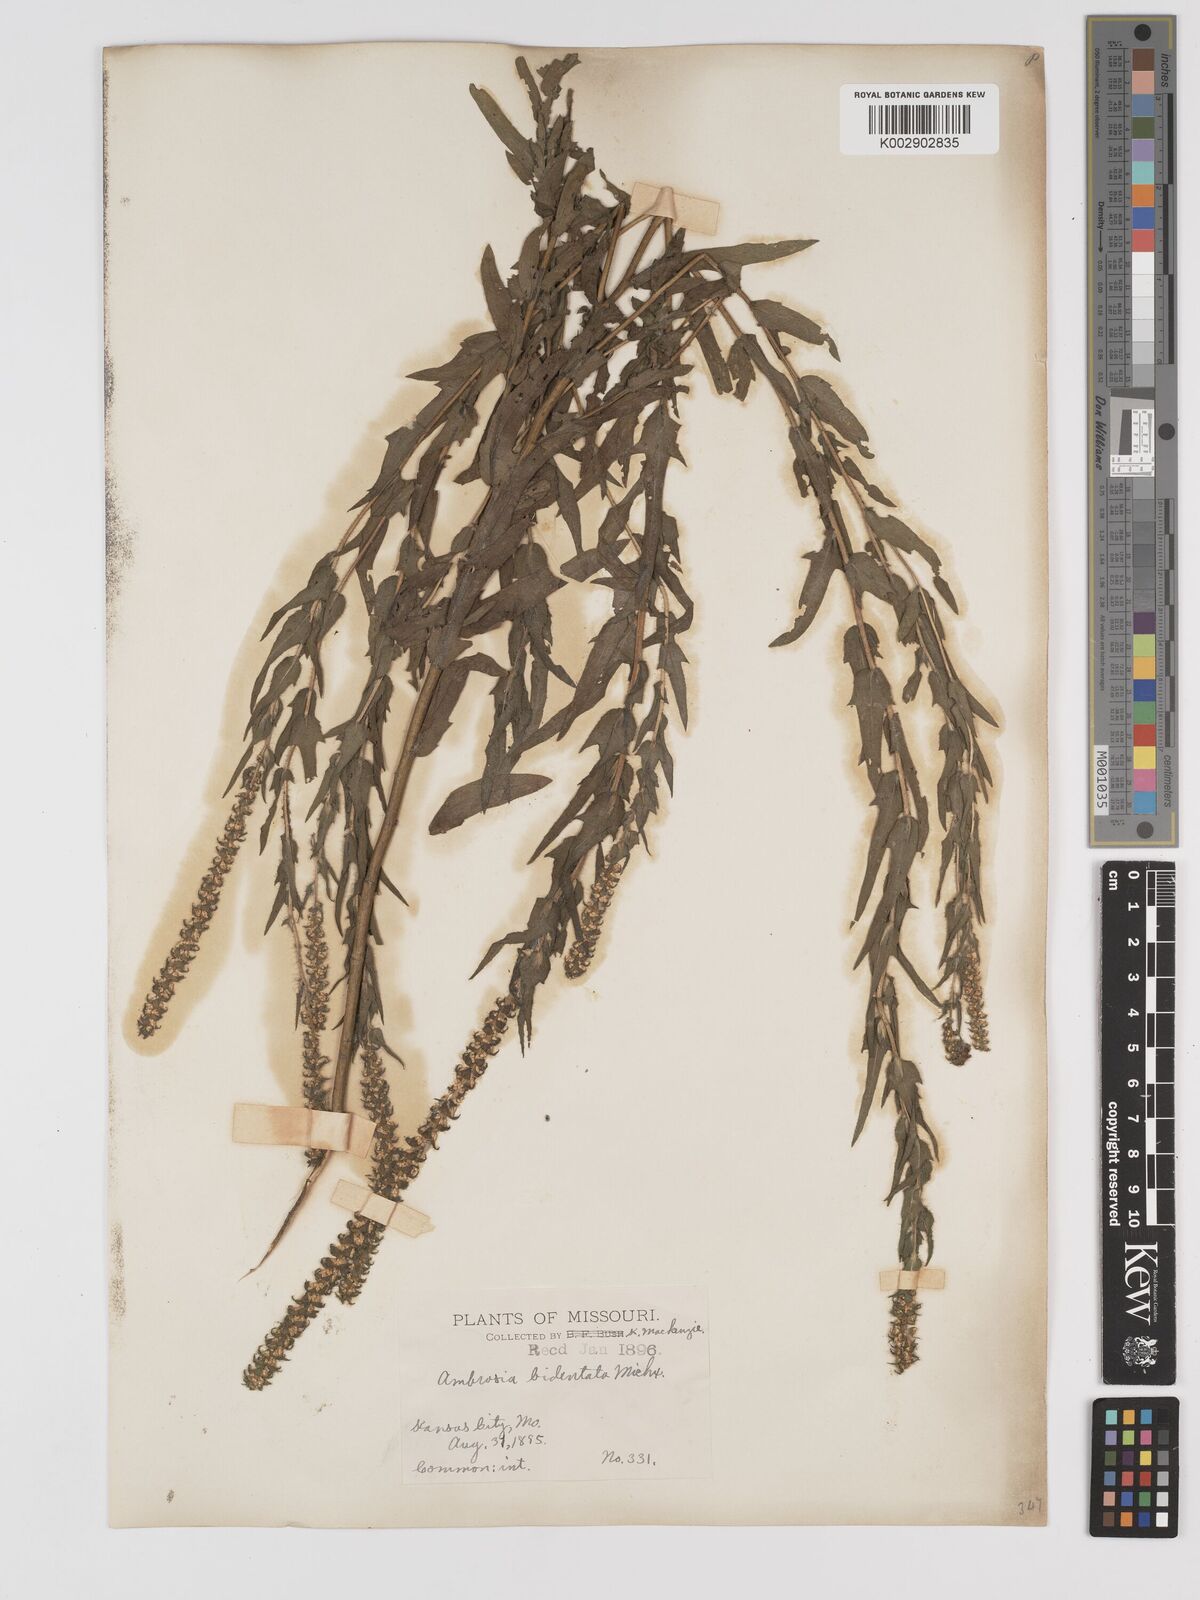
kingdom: Plantae
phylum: Tracheophyta
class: Magnoliopsida
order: Asterales
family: Asteraceae
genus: Ambrosia
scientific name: Ambrosia bidentata
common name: Southern ragweed
